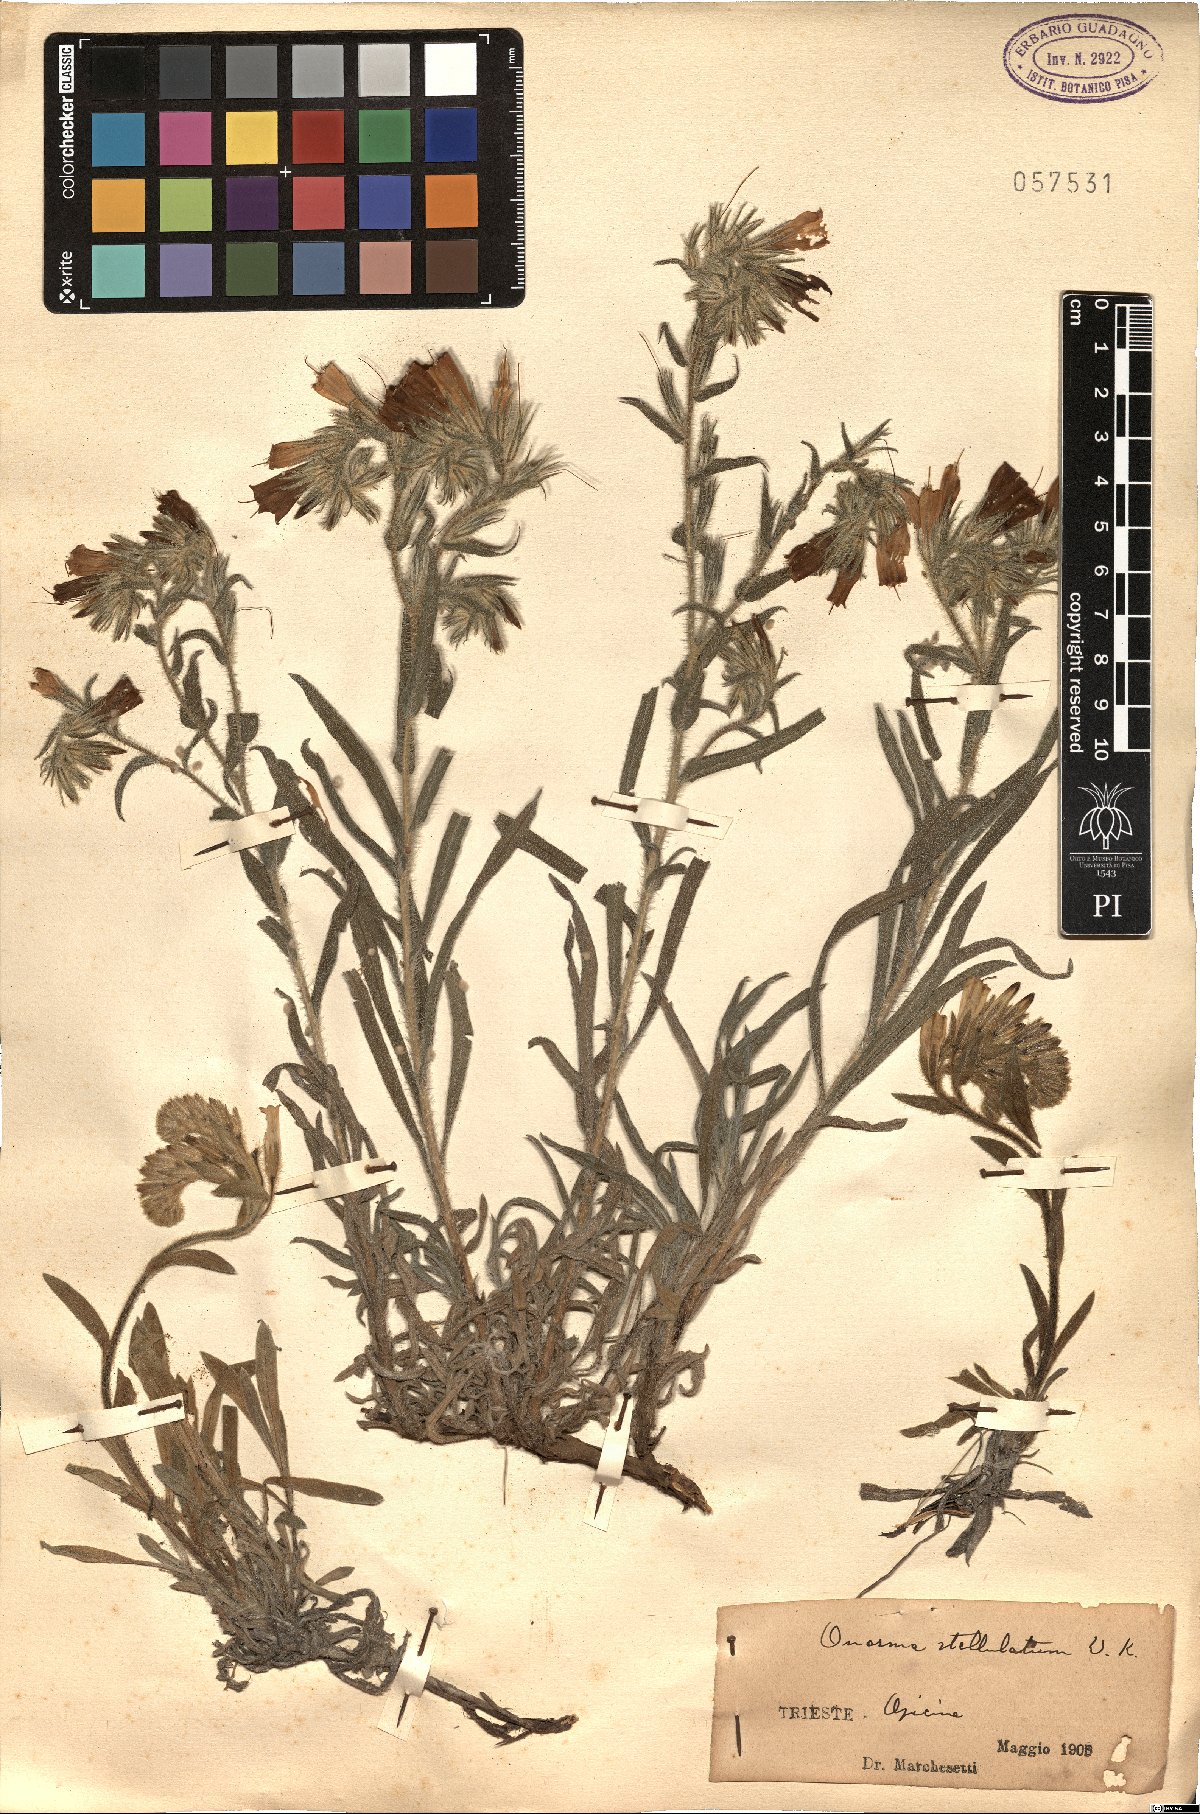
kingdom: Plantae
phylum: Tracheophyta
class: Magnoliopsida
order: Boraginales
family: Boraginaceae
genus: Onosma
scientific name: Onosma stellulata
